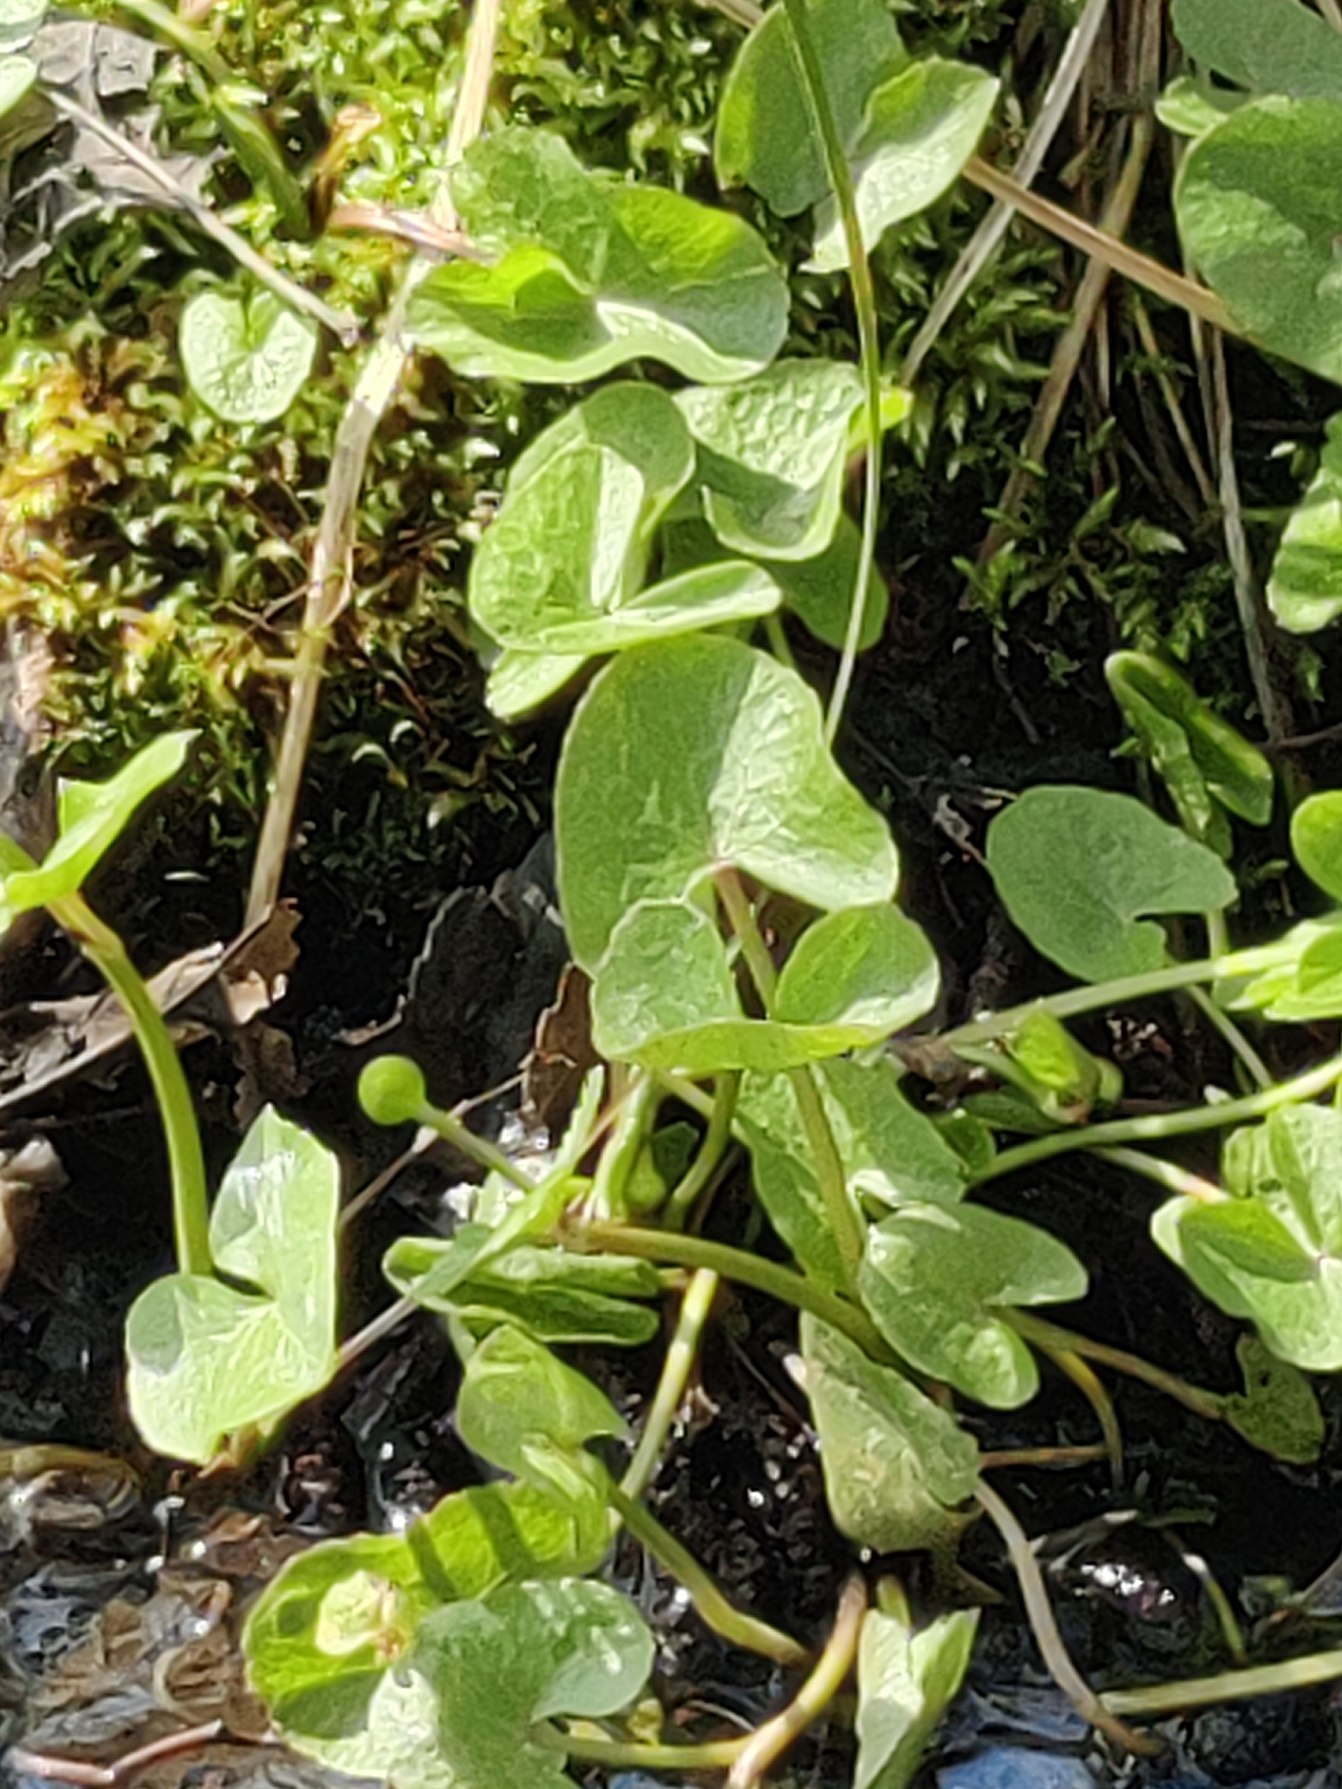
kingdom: Plantae
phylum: Tracheophyta
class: Magnoliopsida
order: Ranunculales
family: Ranunculaceae
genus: Caltha
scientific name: Caltha palustris
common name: Eng-kabbeleje
